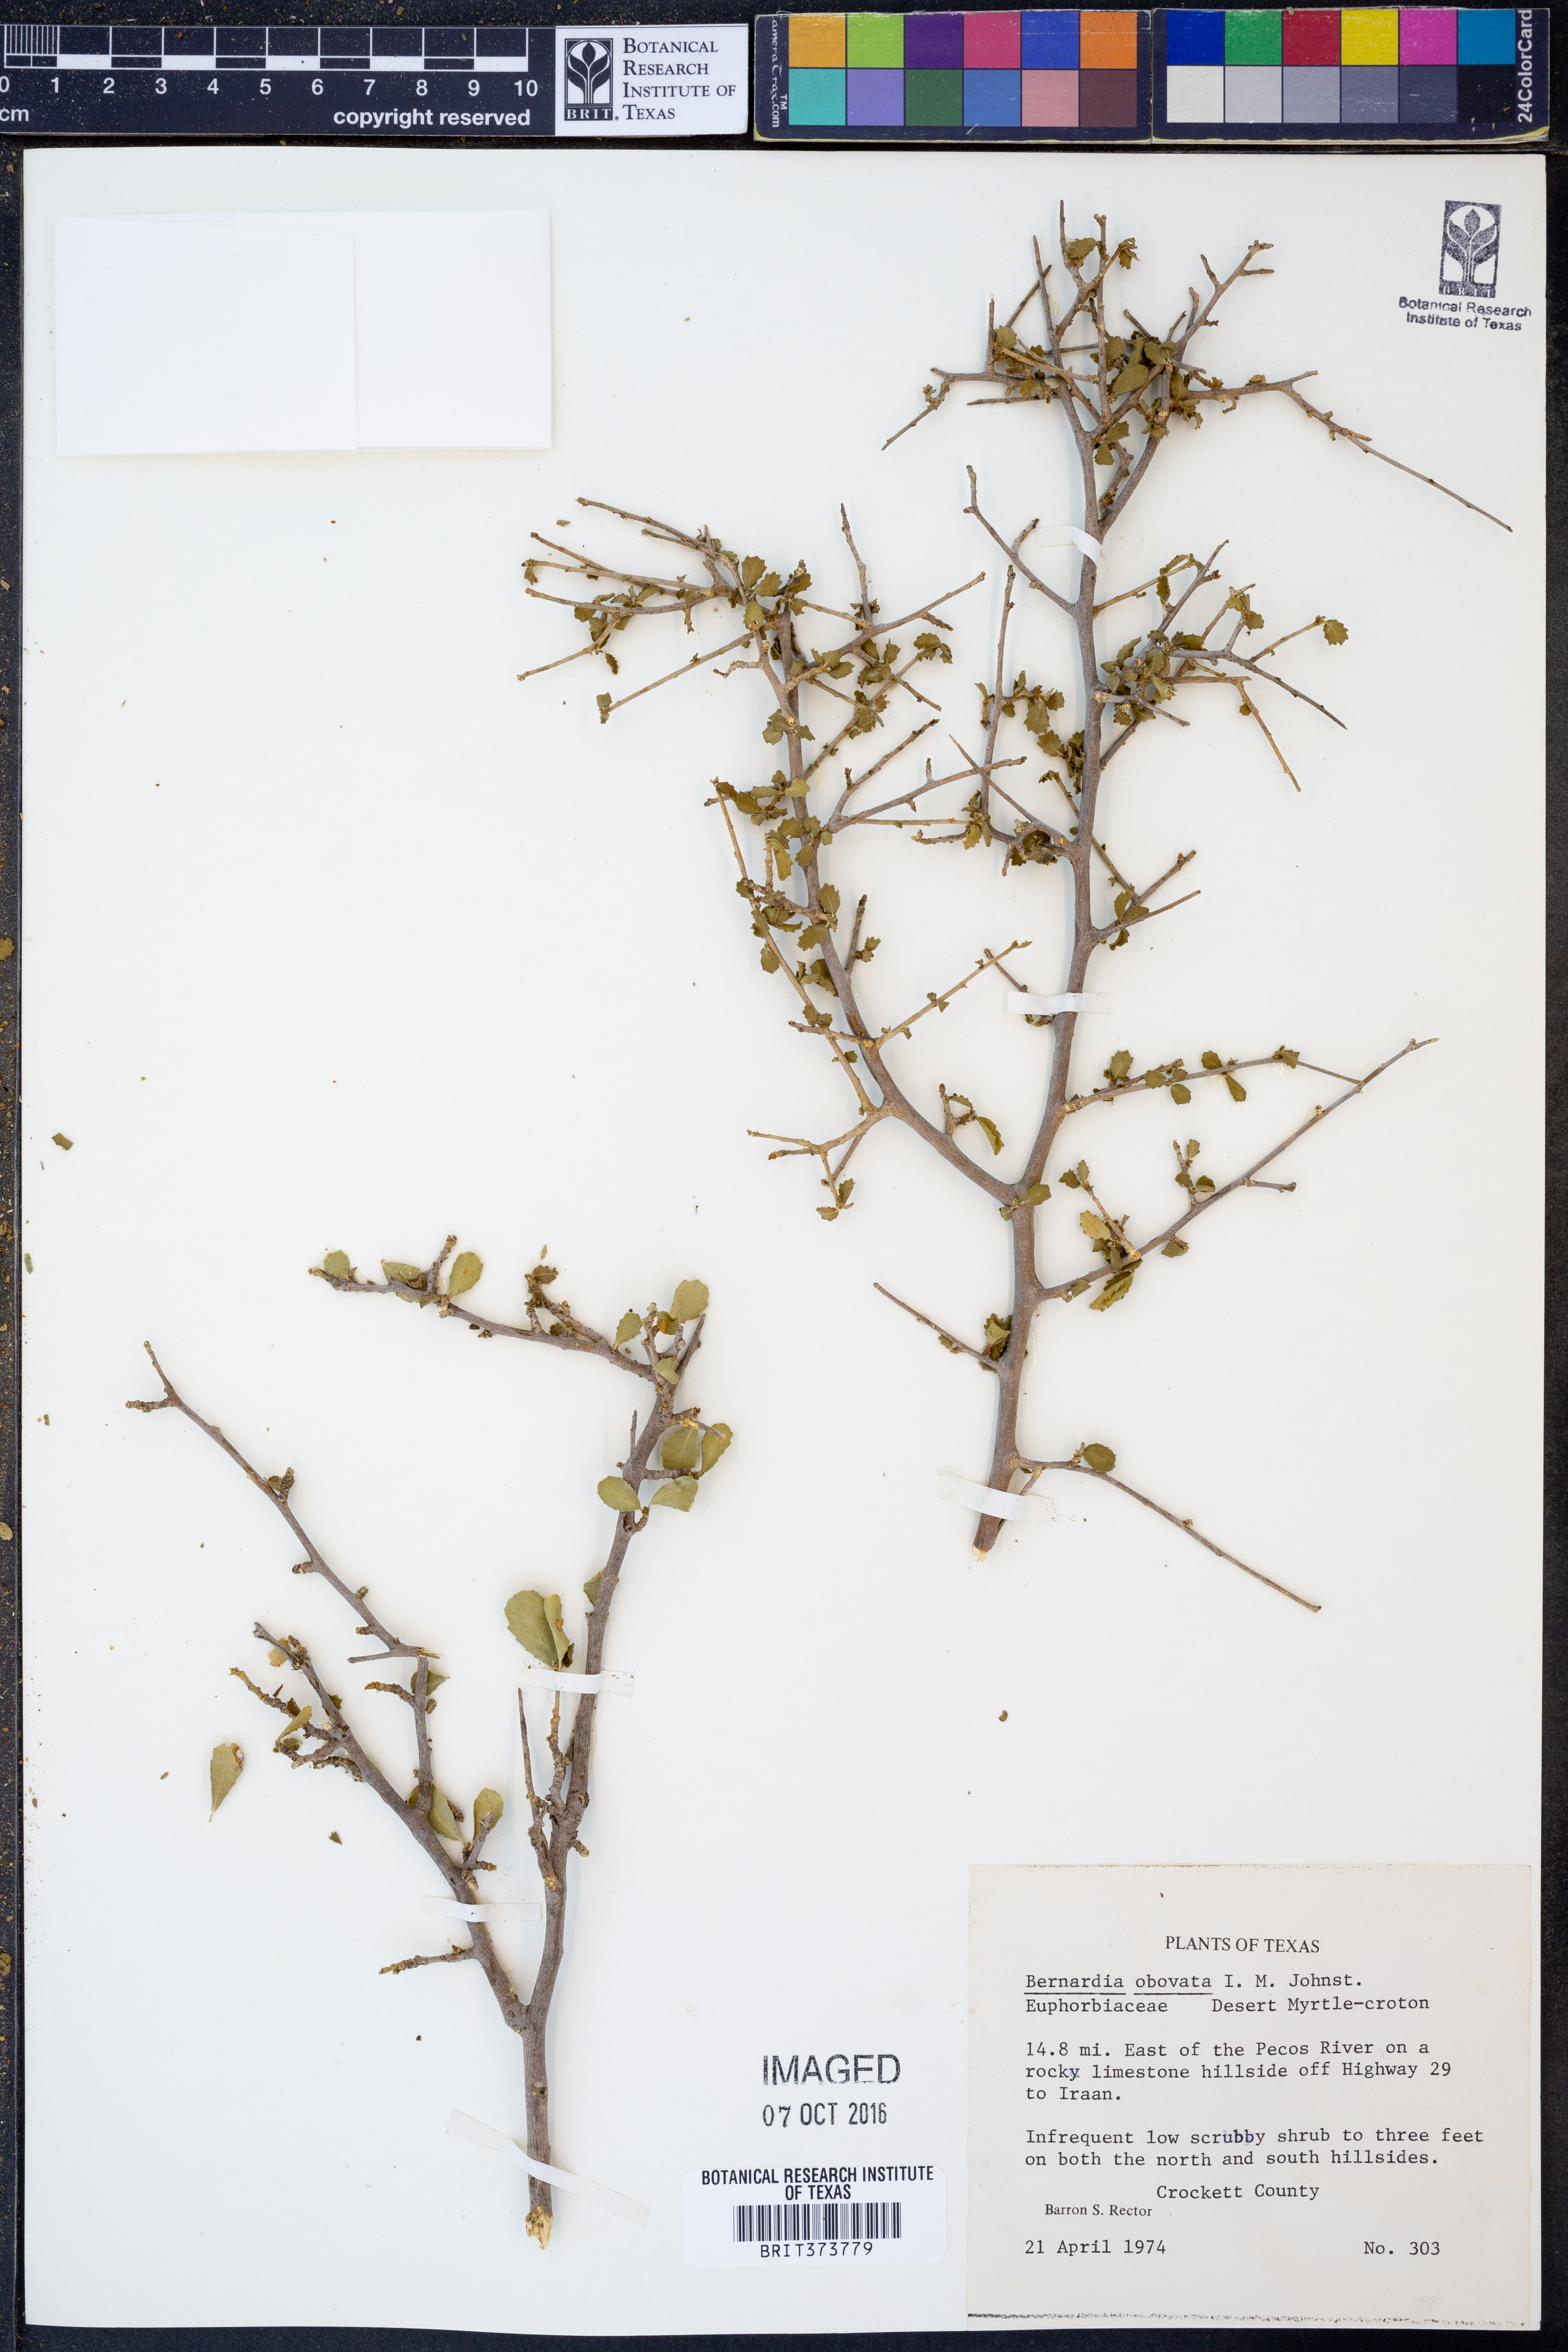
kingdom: Plantae
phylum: Tracheophyta
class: Magnoliopsida
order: Malpighiales
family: Euphorbiaceae
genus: Bernardia
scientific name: Bernardia obovata
